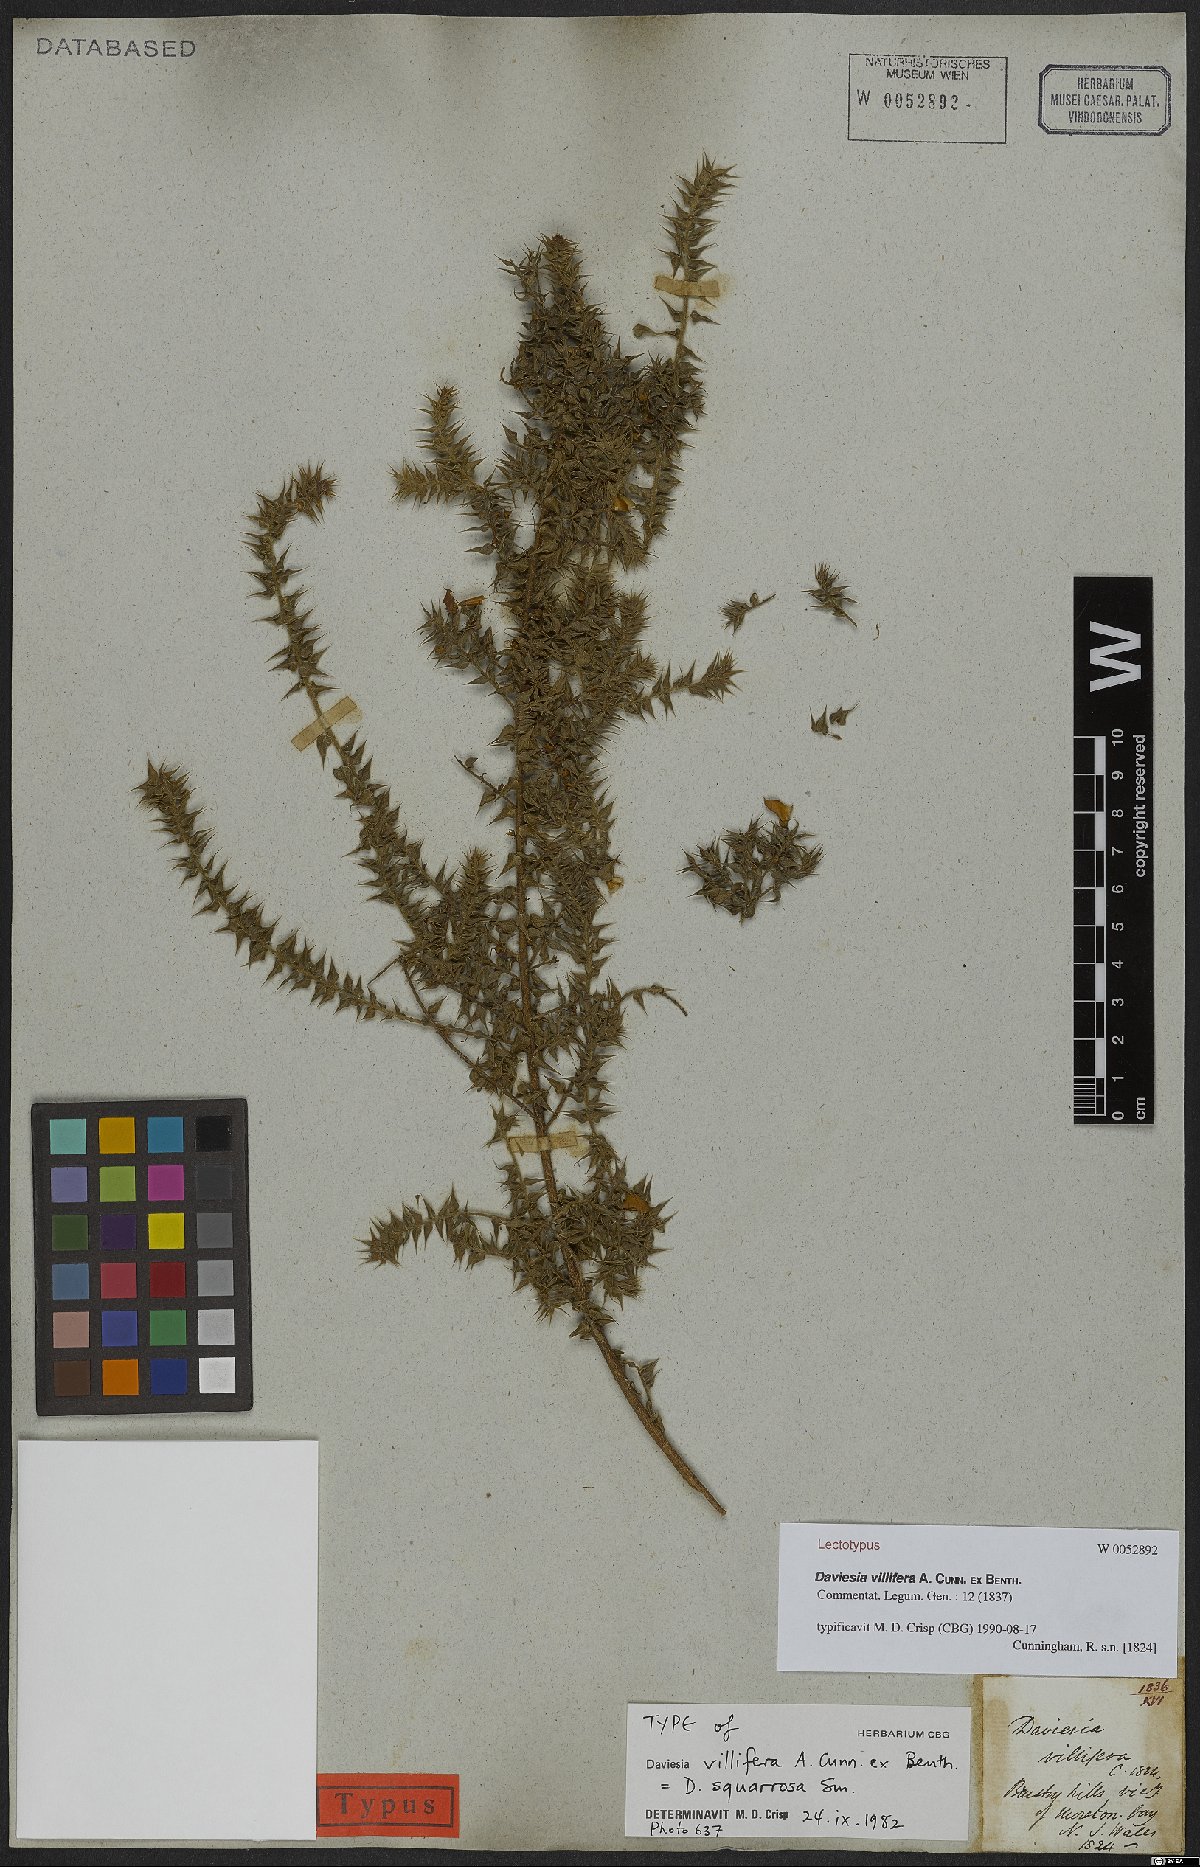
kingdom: Plantae
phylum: Tracheophyta
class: Magnoliopsida
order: Fabales
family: Fabaceae
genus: Daviesia
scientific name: Daviesia villifera
